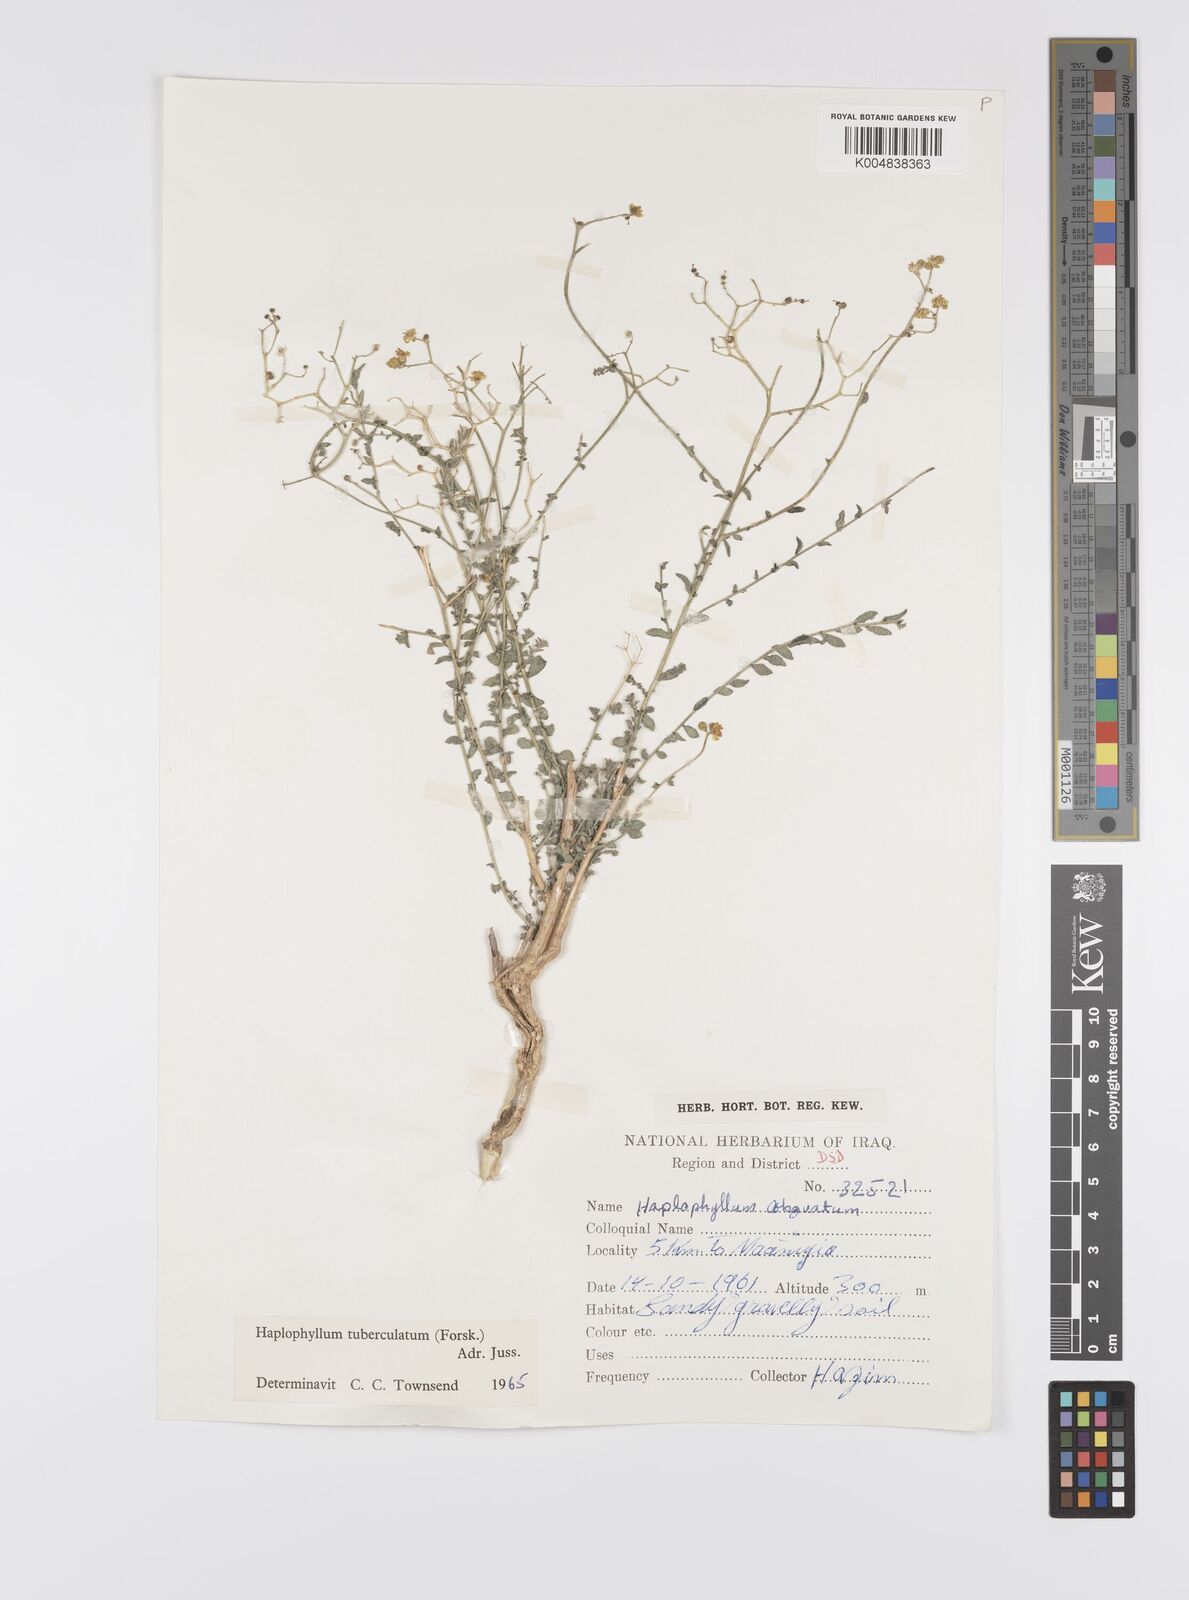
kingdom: Plantae
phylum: Tracheophyta
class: Magnoliopsida
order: Sapindales
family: Rutaceae
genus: Haplophyllum
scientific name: Haplophyllum tuberculatum
